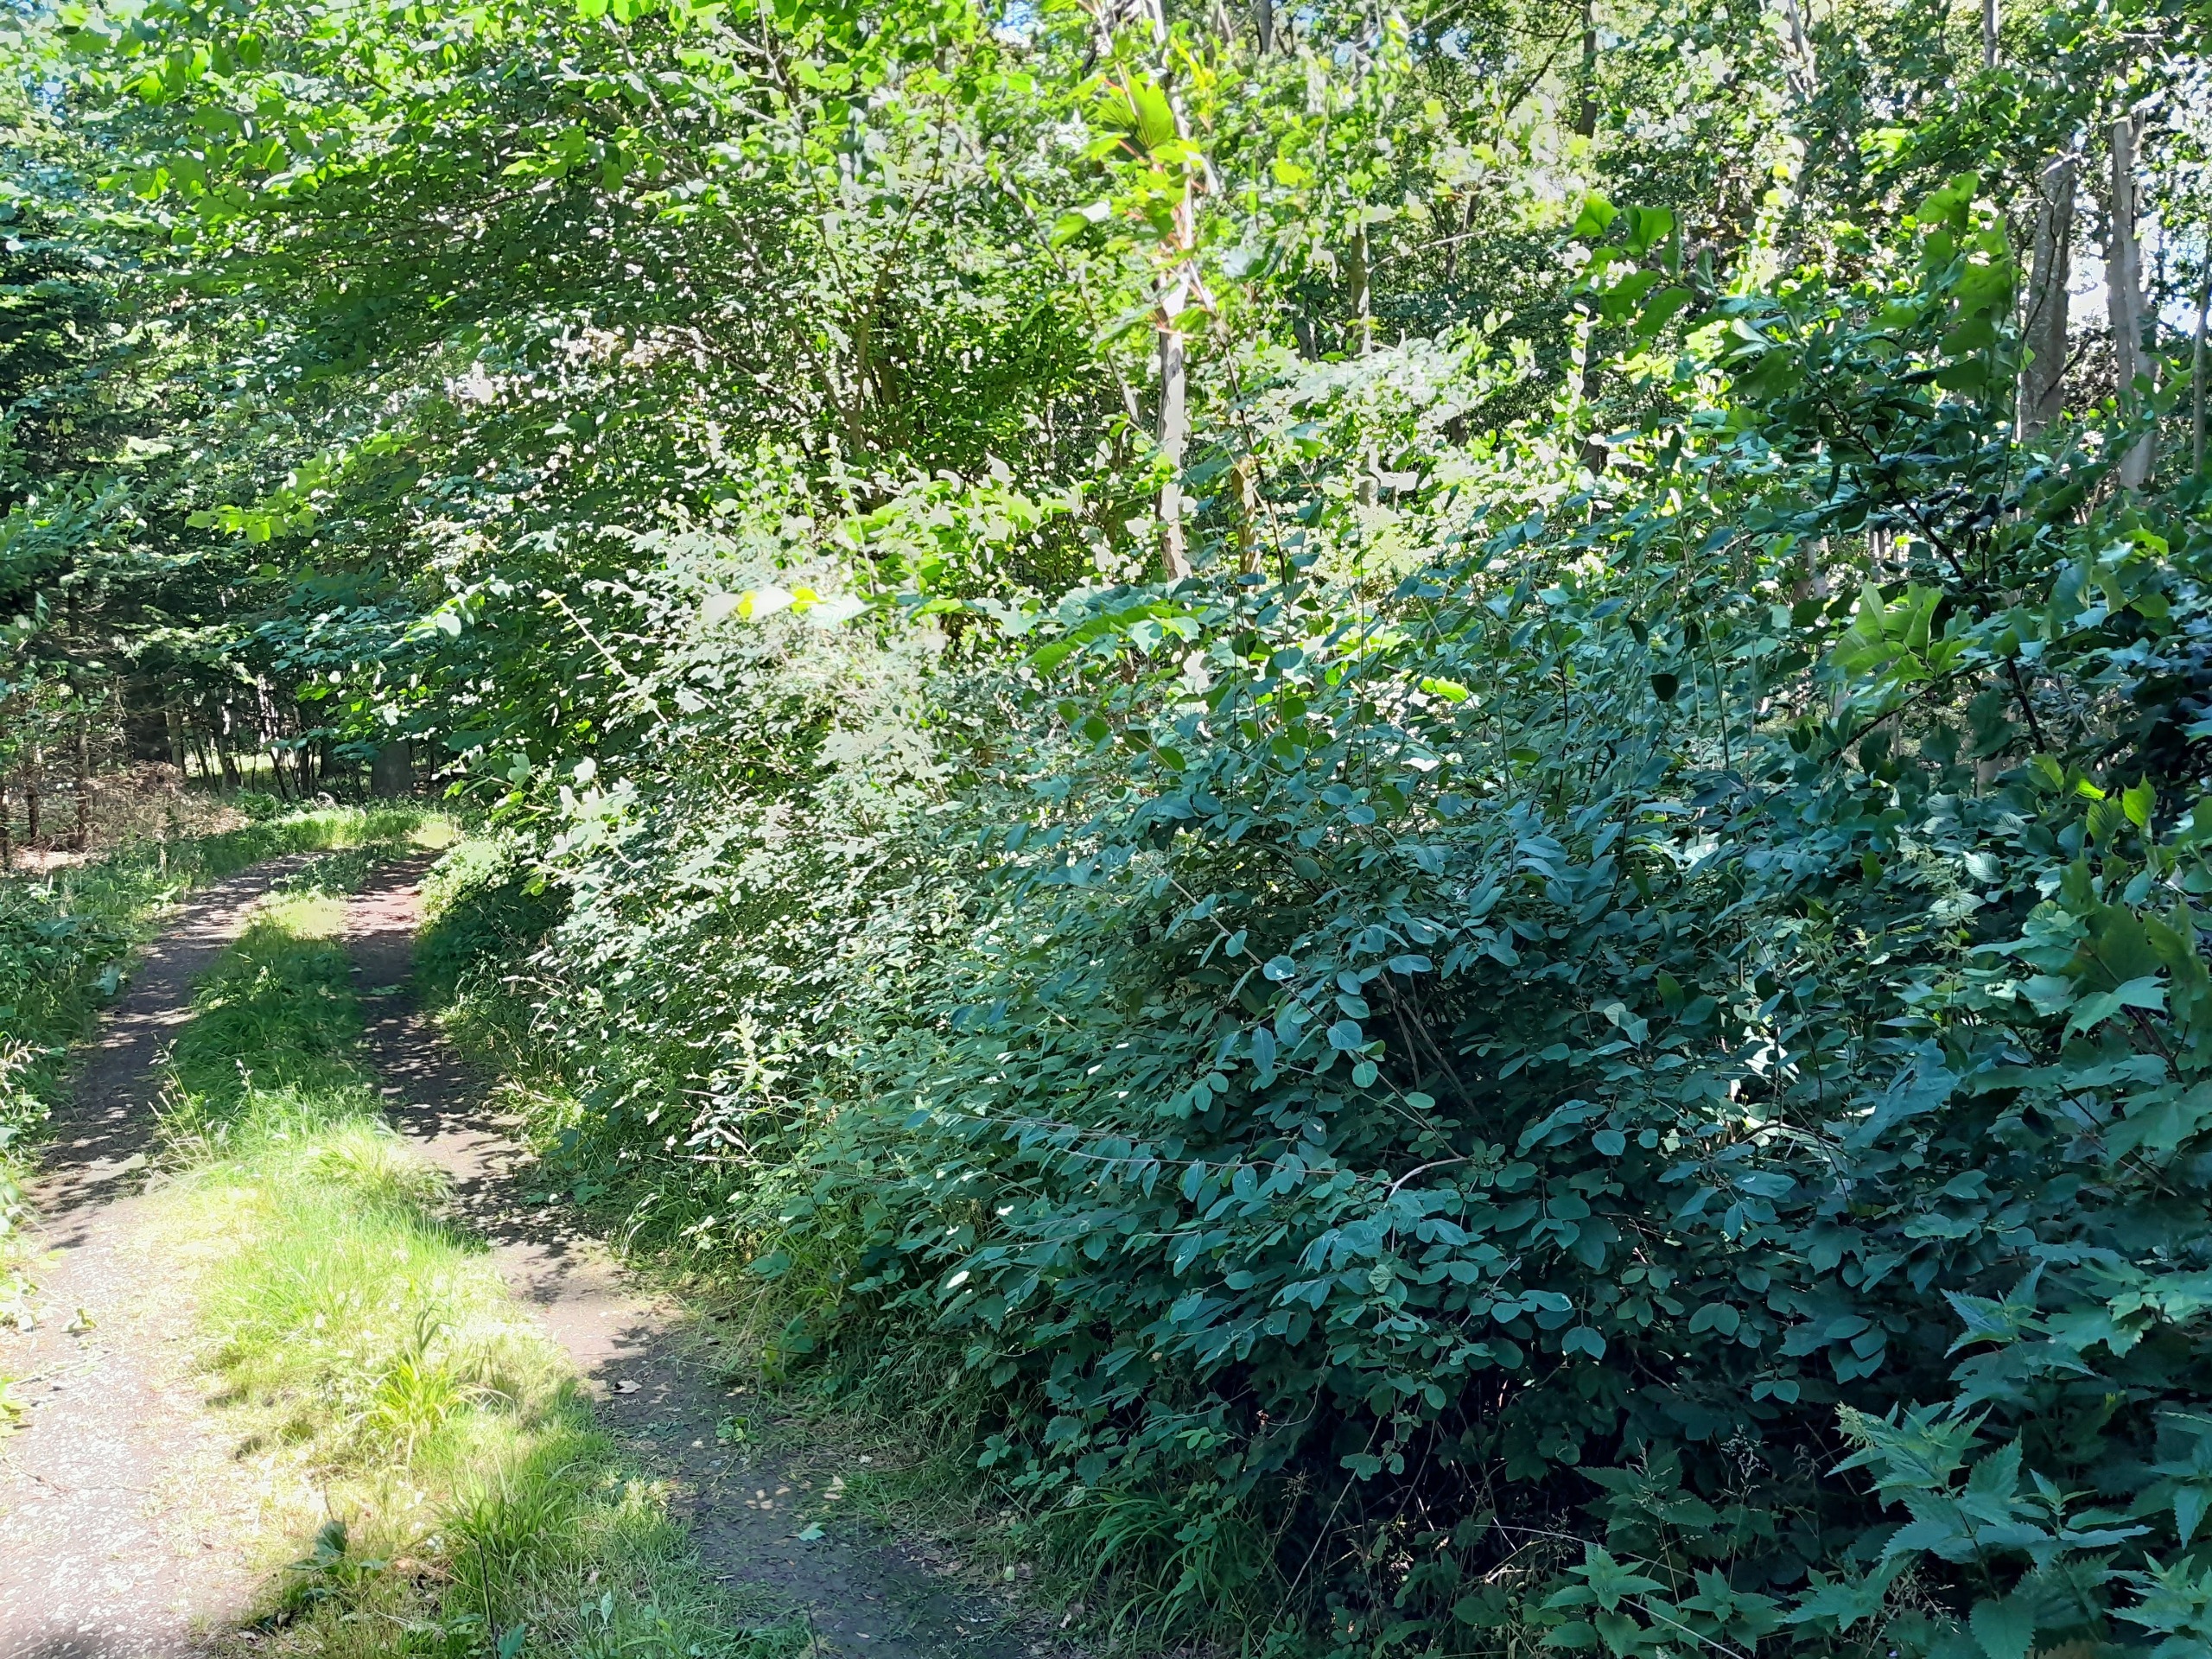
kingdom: Plantae
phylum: Tracheophyta
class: Magnoliopsida
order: Dipsacales
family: Caprifoliaceae
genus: Lonicera
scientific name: Lonicera xylosteum
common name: Dunet gedeblad
